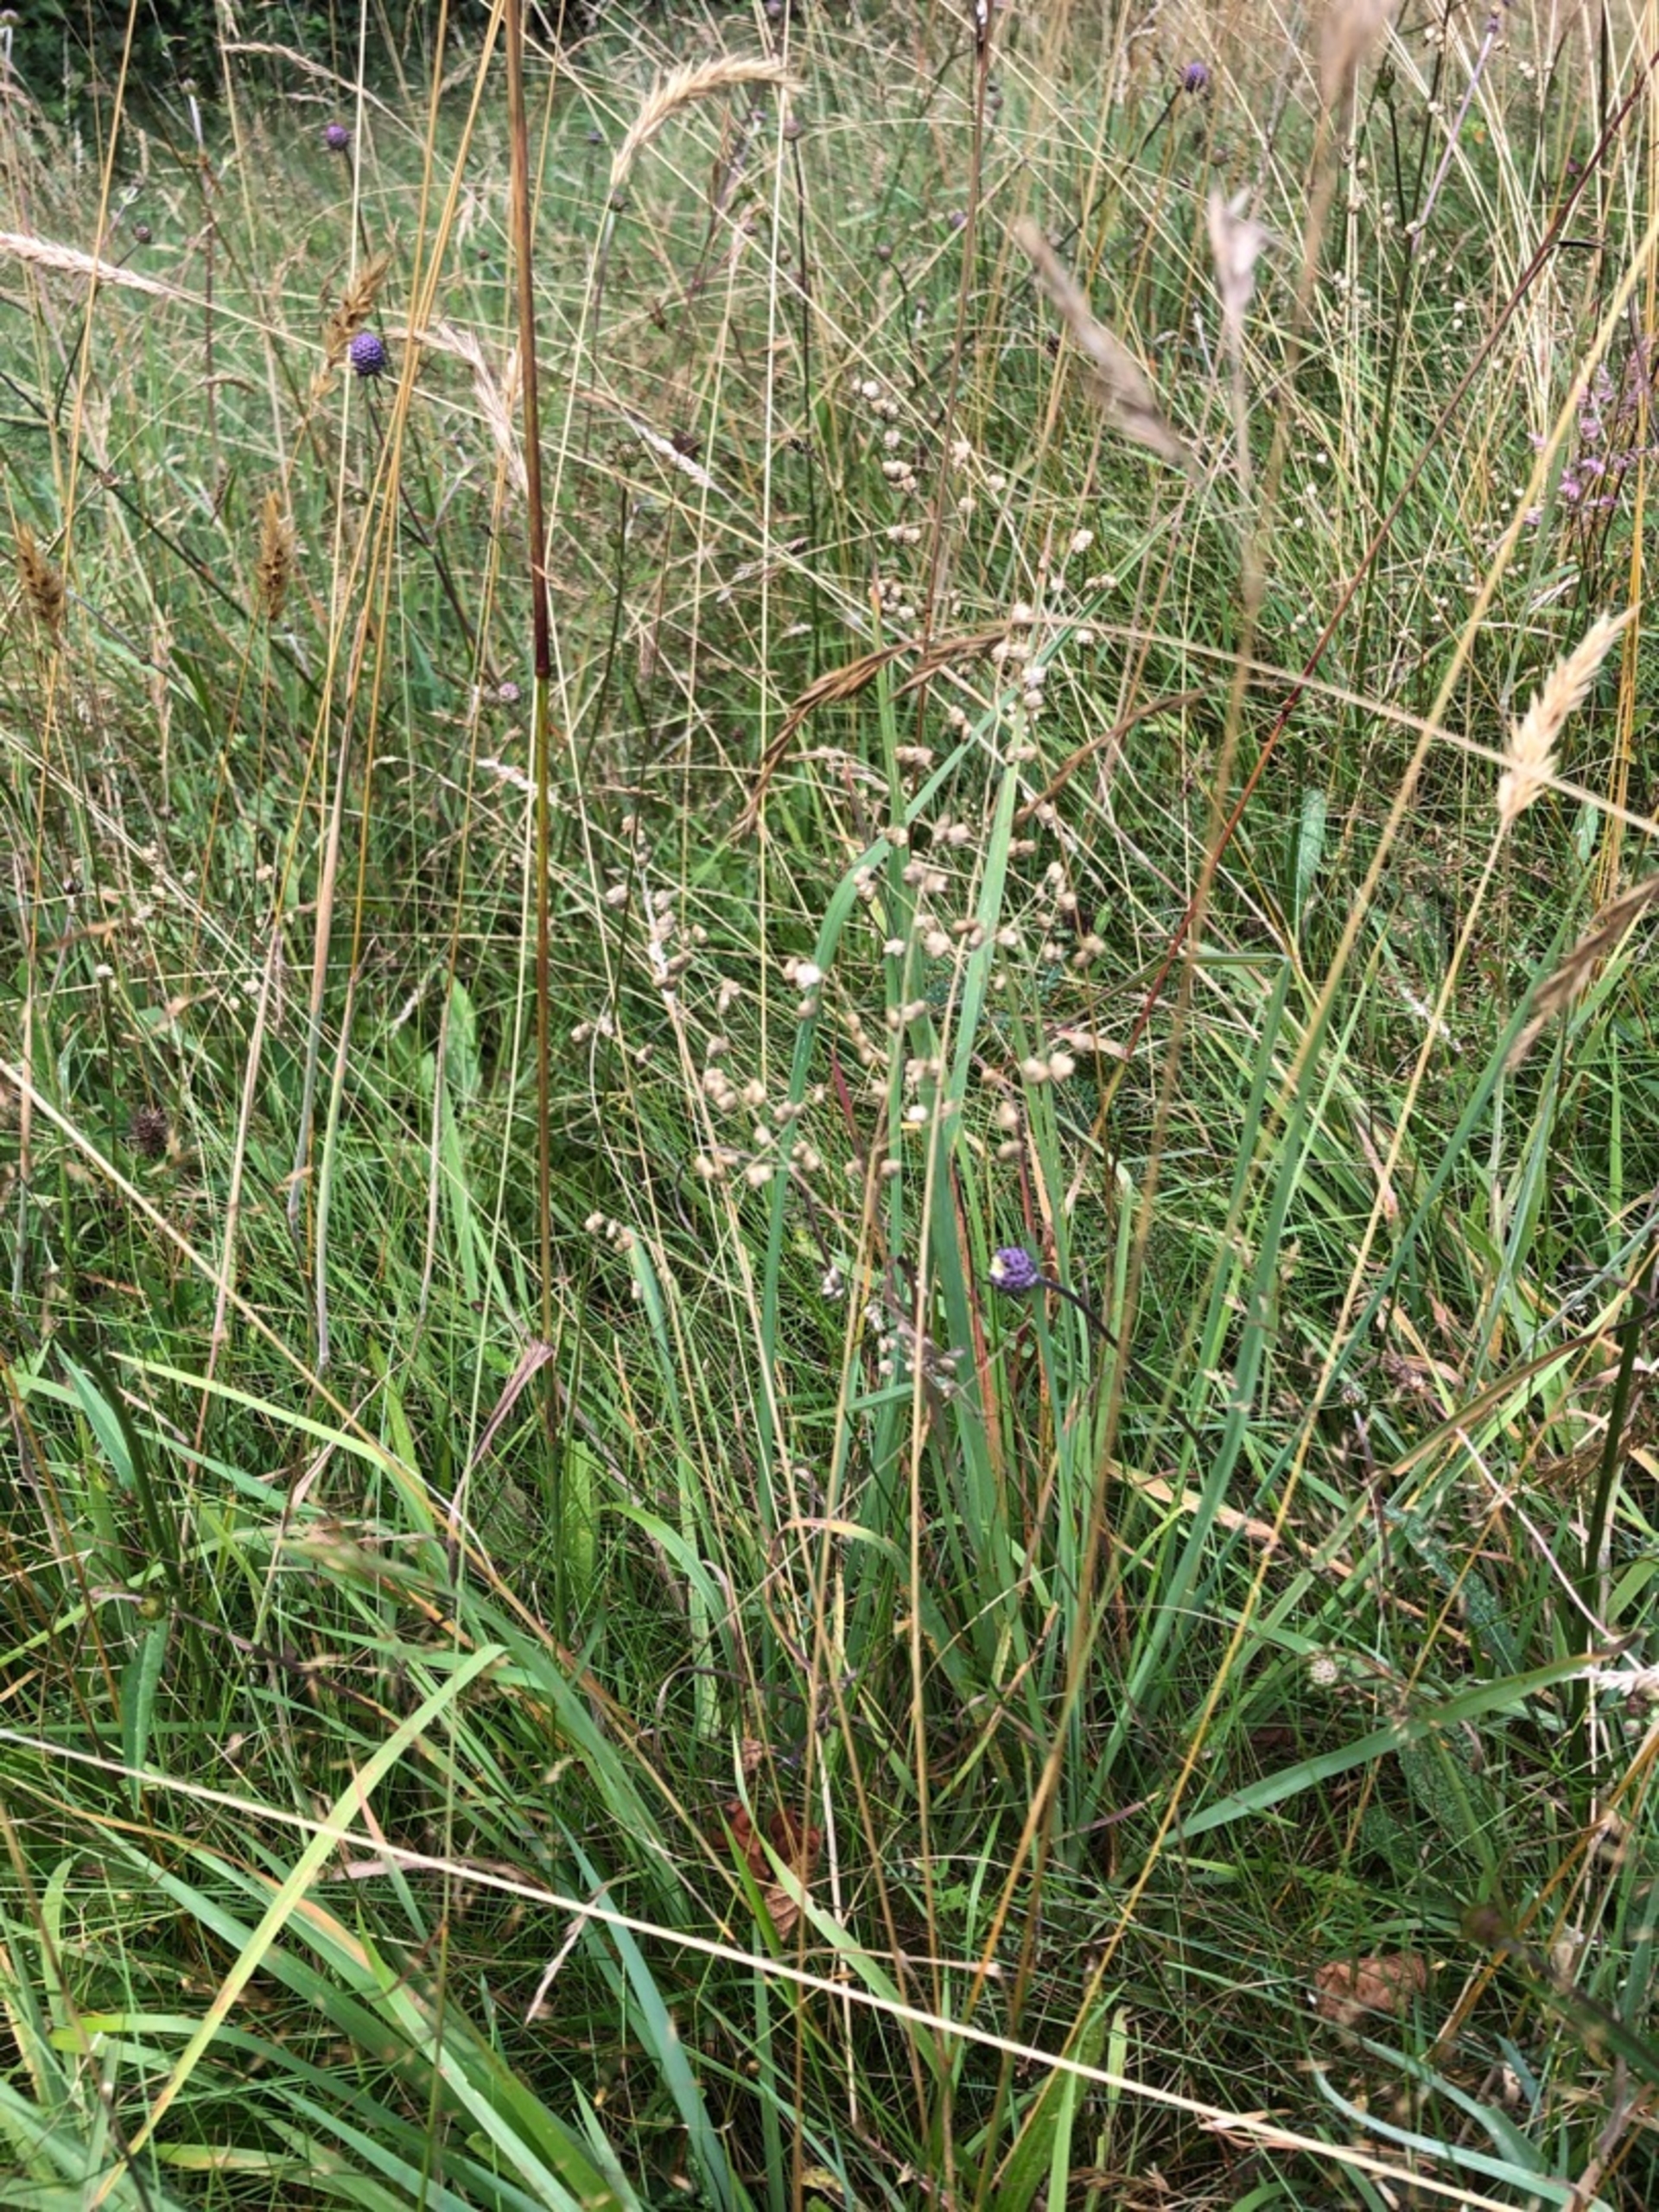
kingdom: Plantae
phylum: Tracheophyta
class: Liliopsida
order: Poales
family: Poaceae
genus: Briza
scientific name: Briza media
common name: Hjertegræs
